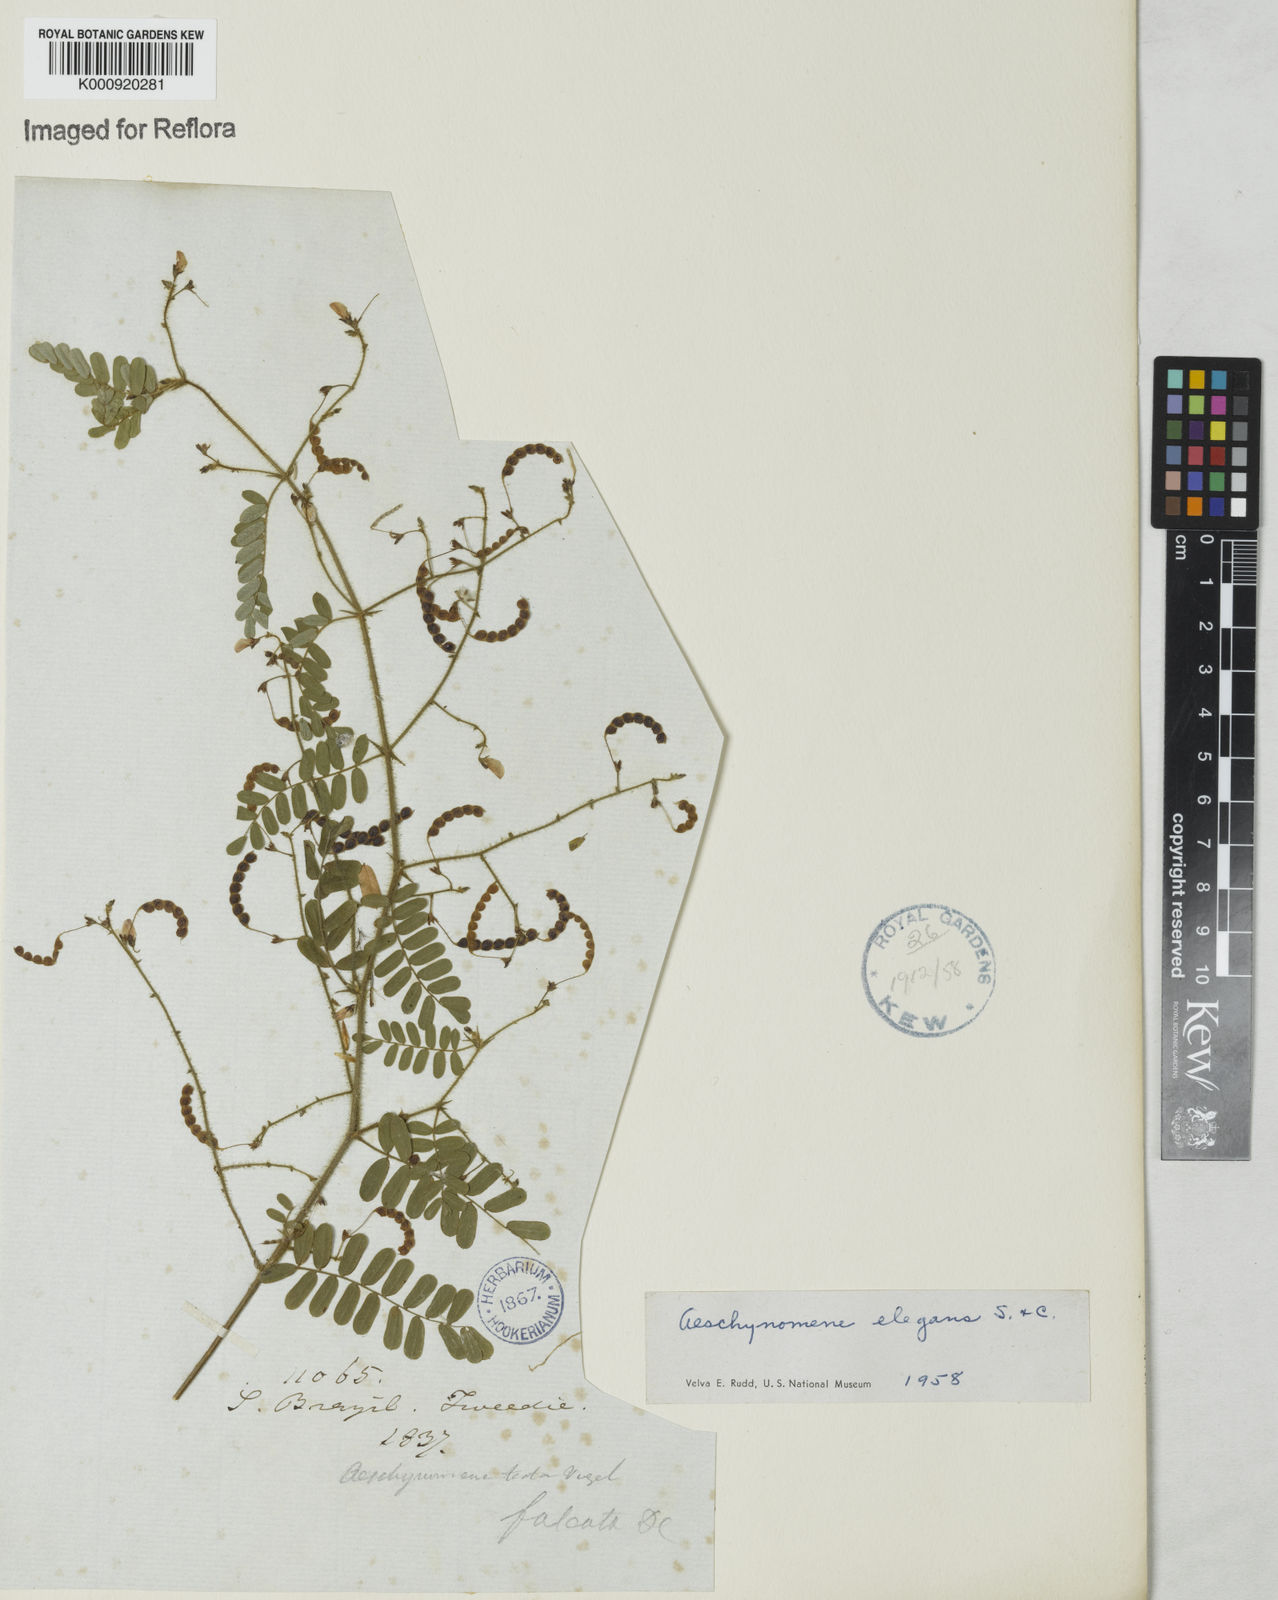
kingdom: Plantae
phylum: Tracheophyta
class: Magnoliopsida
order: Fabales
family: Fabaceae
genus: Ctenodon
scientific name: Ctenodon elegans
